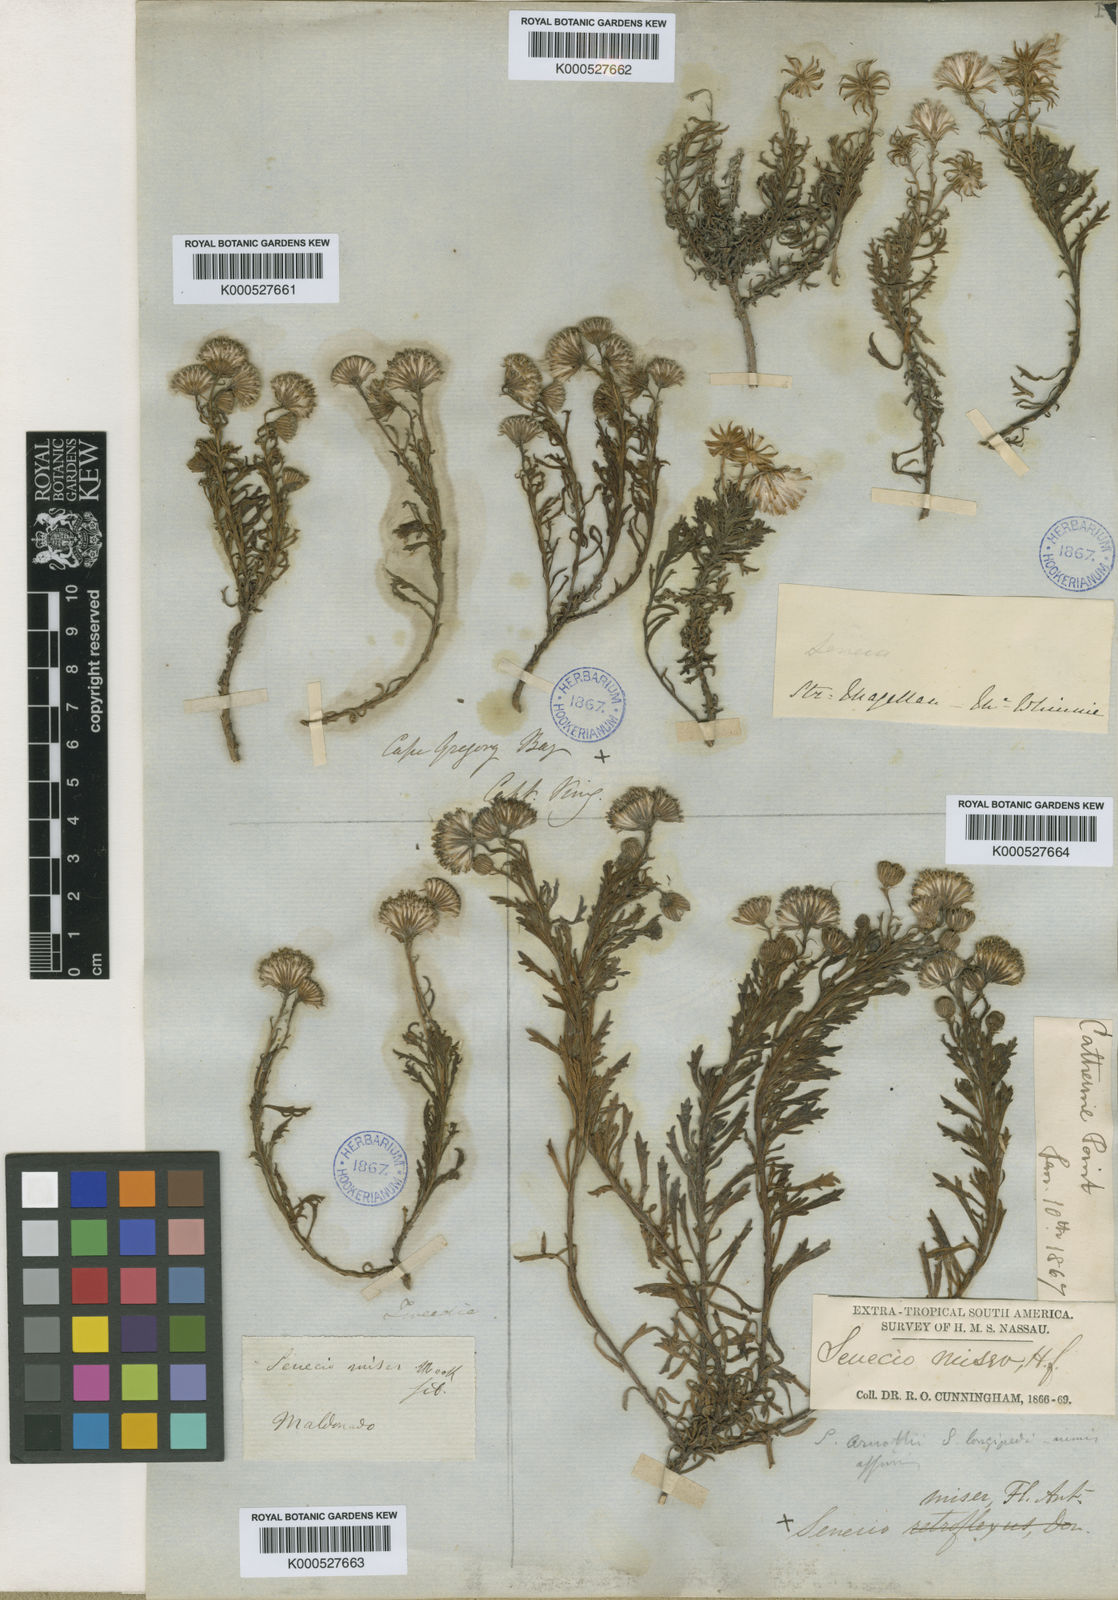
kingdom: Plantae
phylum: Tracheophyta
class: Magnoliopsida
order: Asterales
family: Asteraceae
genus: Senecio
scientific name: Senecio miser
